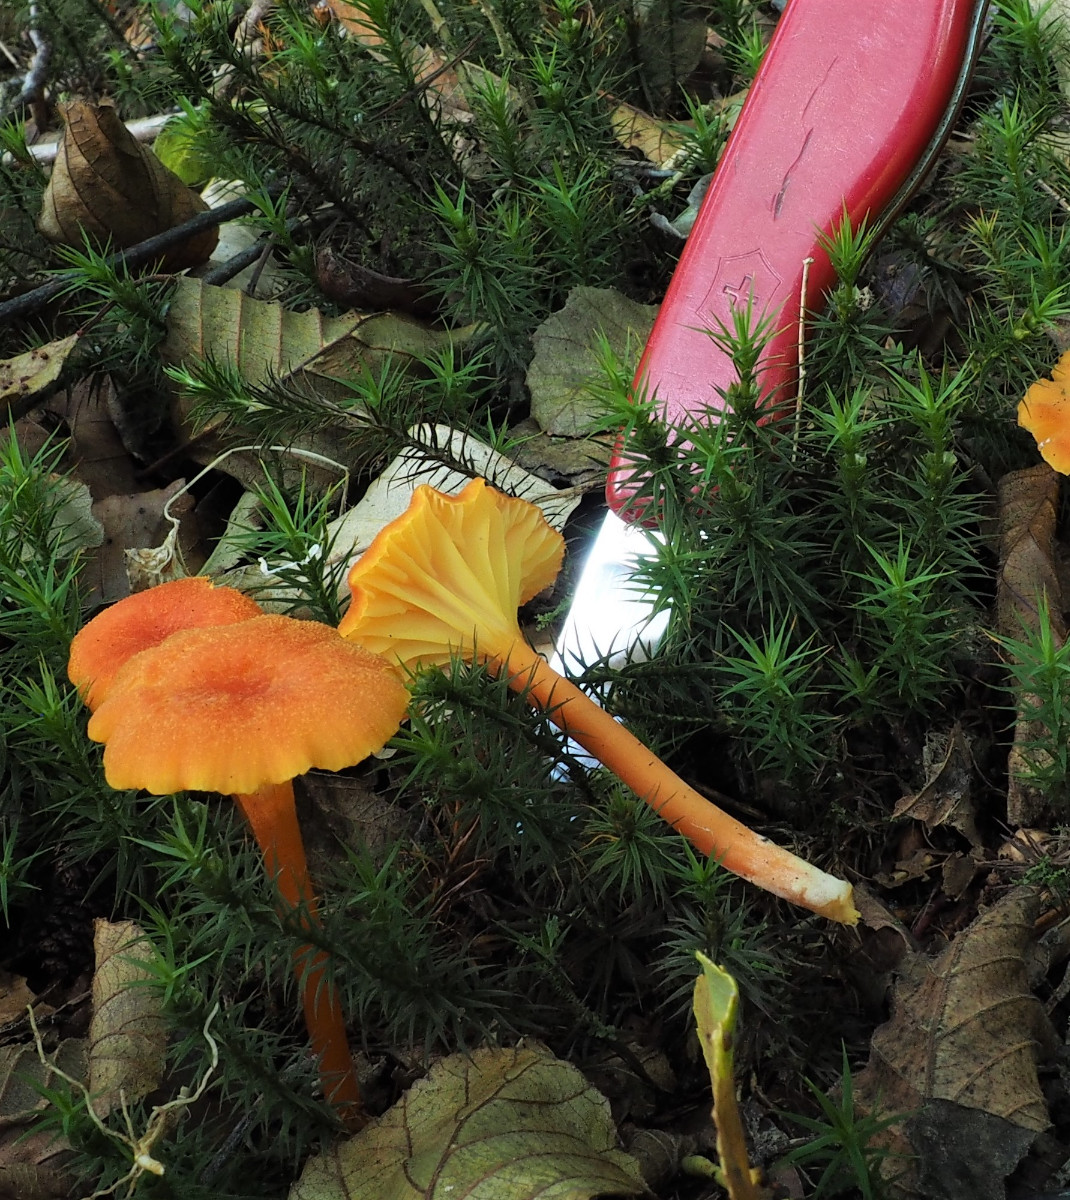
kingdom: Fungi
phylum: Basidiomycota
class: Agaricomycetes
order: Agaricales
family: Hygrophoraceae
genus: Hygrocybe
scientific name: Hygrocybe cantharellus
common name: kantarel-vokshat
